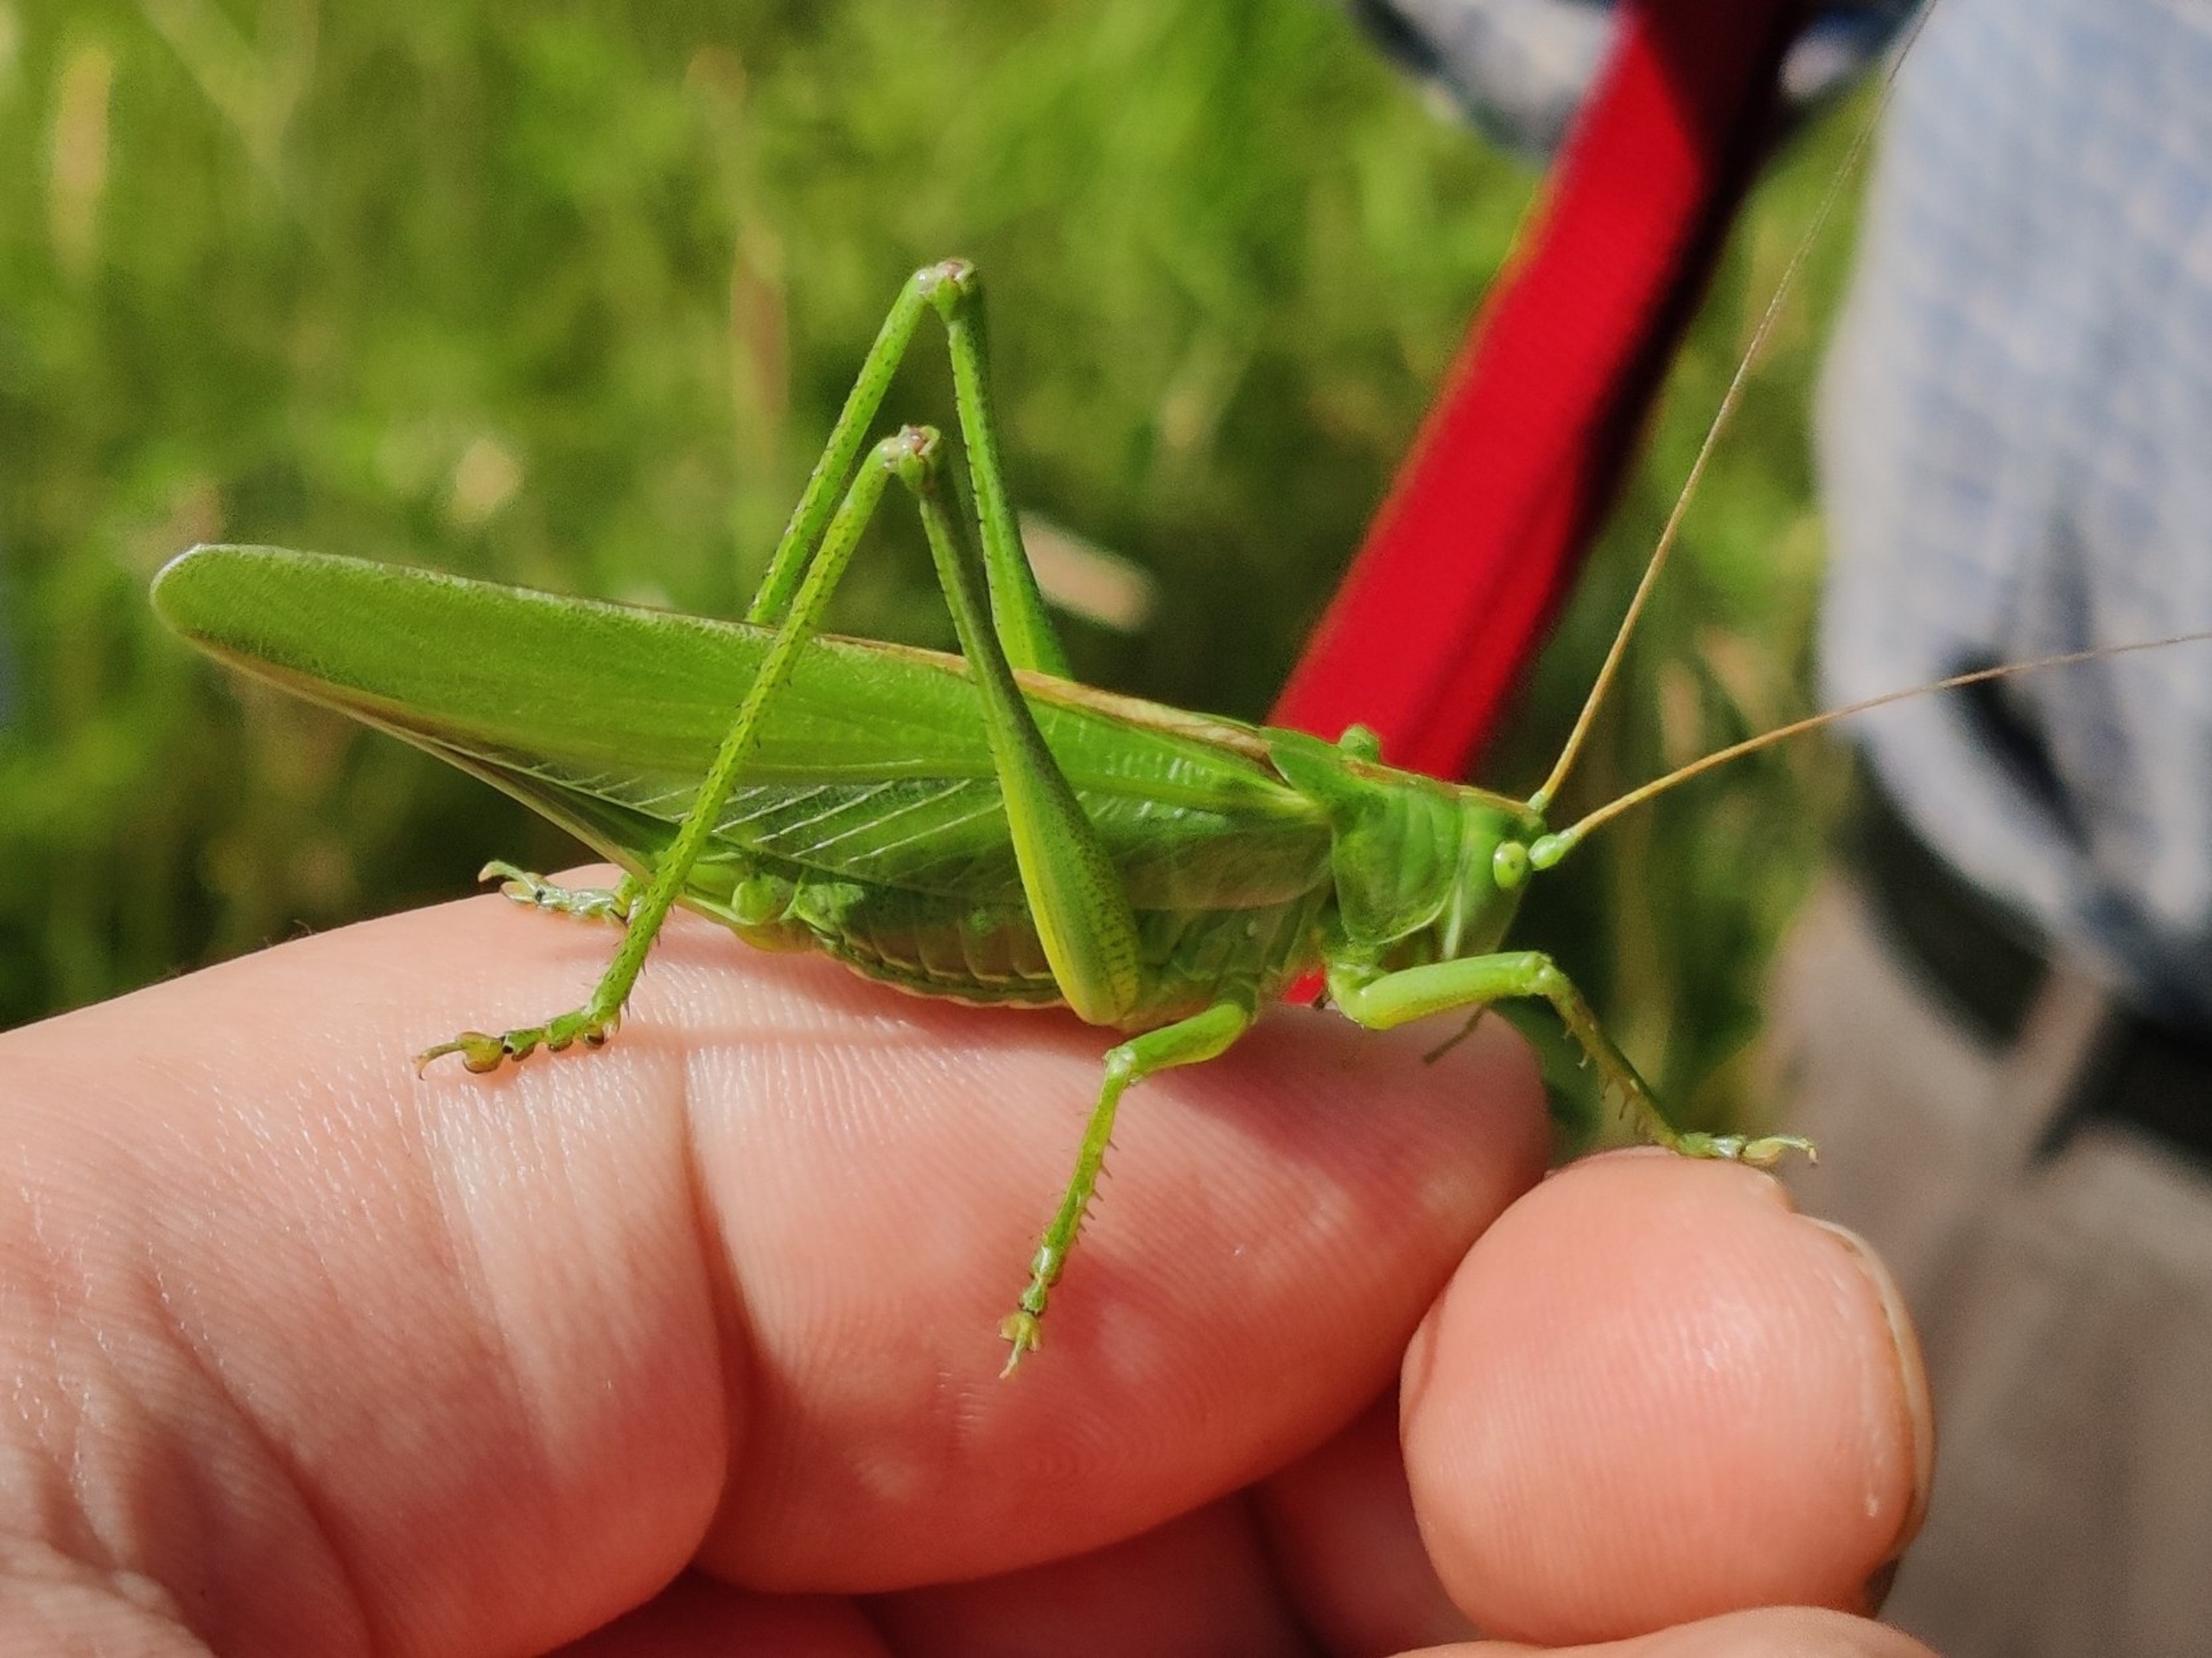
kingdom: Animalia
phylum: Arthropoda
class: Insecta
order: Orthoptera
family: Tettigoniidae
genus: Tettigonia
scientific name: Tettigonia viridissima
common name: Stor grøn løvgræshoppe
